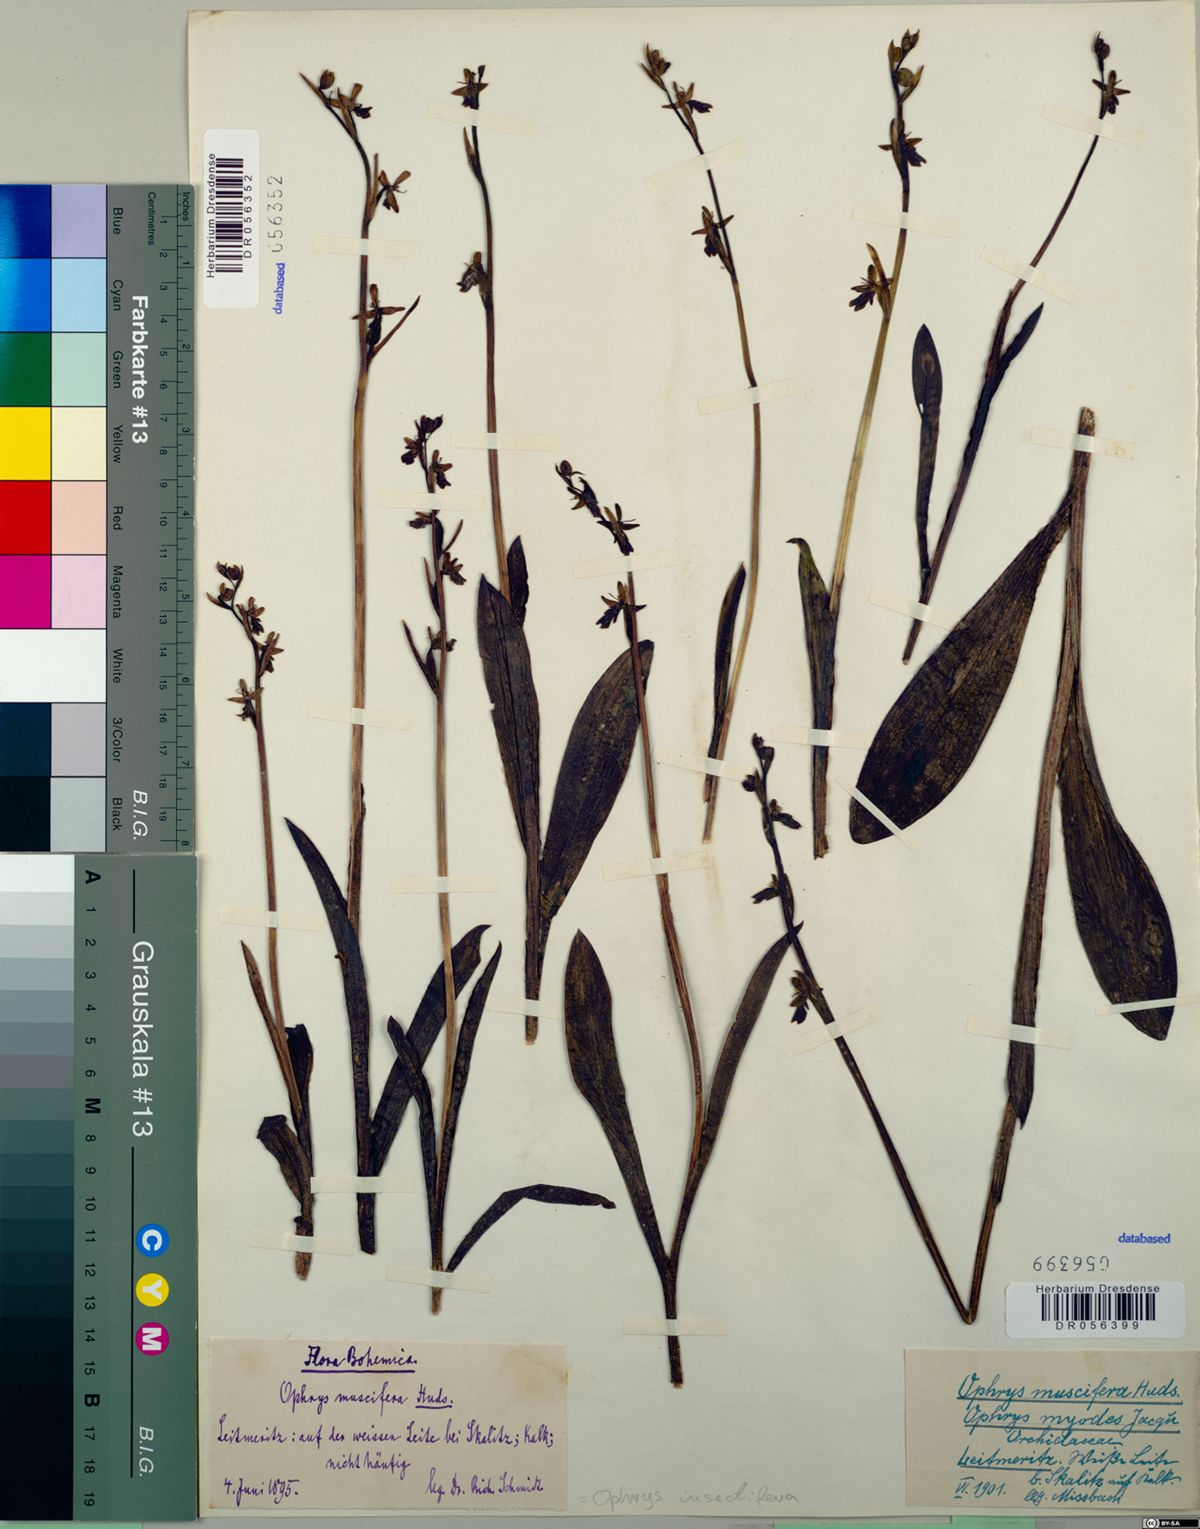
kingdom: Plantae
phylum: Tracheophyta
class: Liliopsida
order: Asparagales
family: Orchidaceae
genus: Ophrys
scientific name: Ophrys insectifera
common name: Fly orchid
